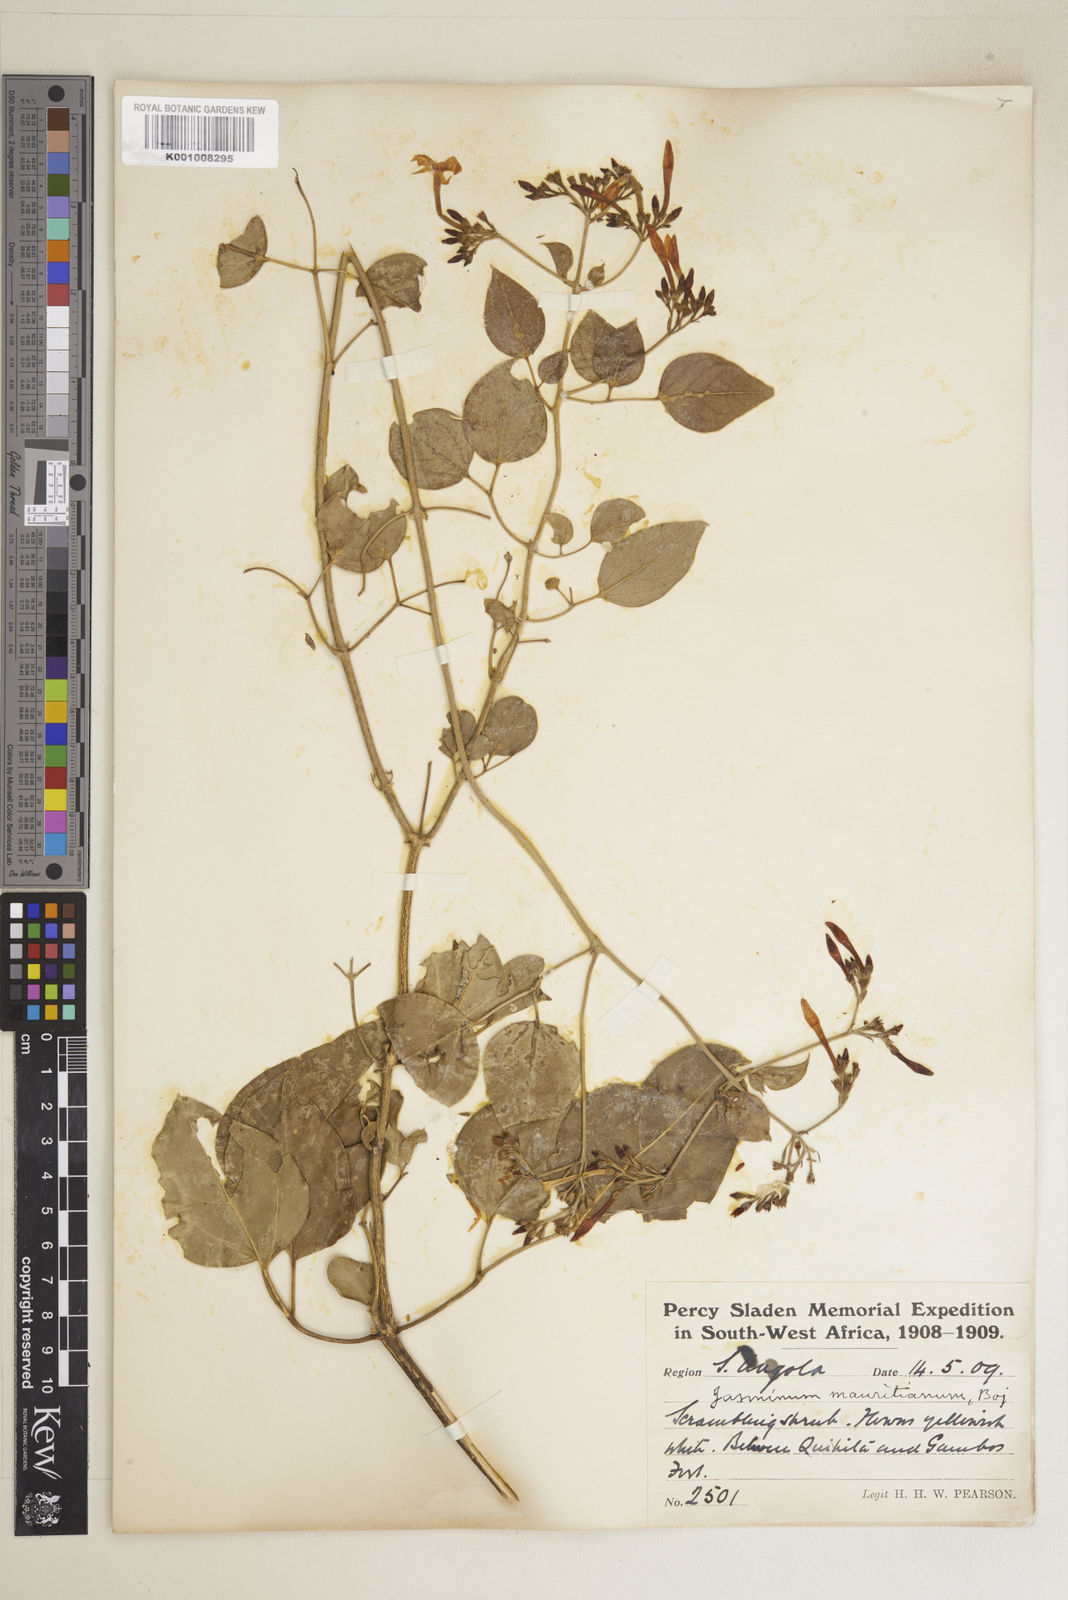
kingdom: Plantae
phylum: Tracheophyta
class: Magnoliopsida
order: Lamiales
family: Oleaceae
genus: Jasminum
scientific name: Jasminum fluminense
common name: Brazilian jasmine
